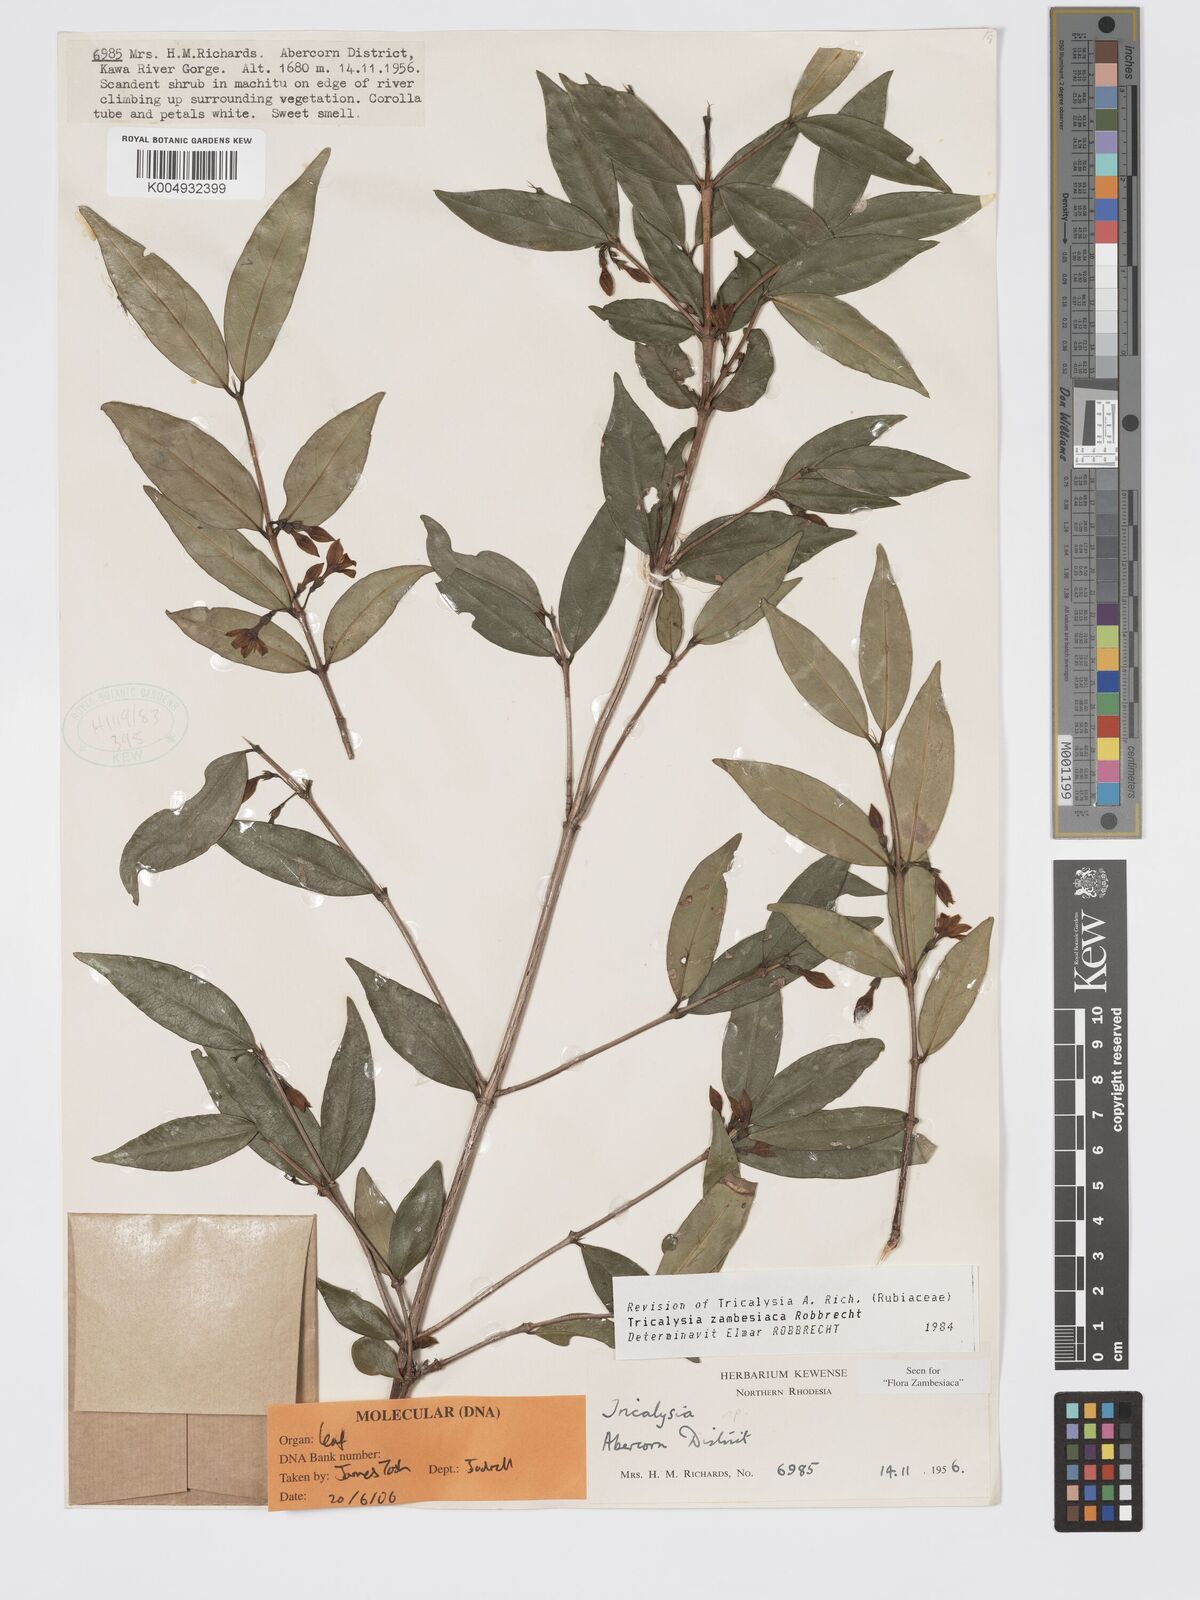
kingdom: Plantae
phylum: Tracheophyta
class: Magnoliopsida
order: Gentianales
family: Rubiaceae
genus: Tricalysia
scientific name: Tricalysia zambesiaca
